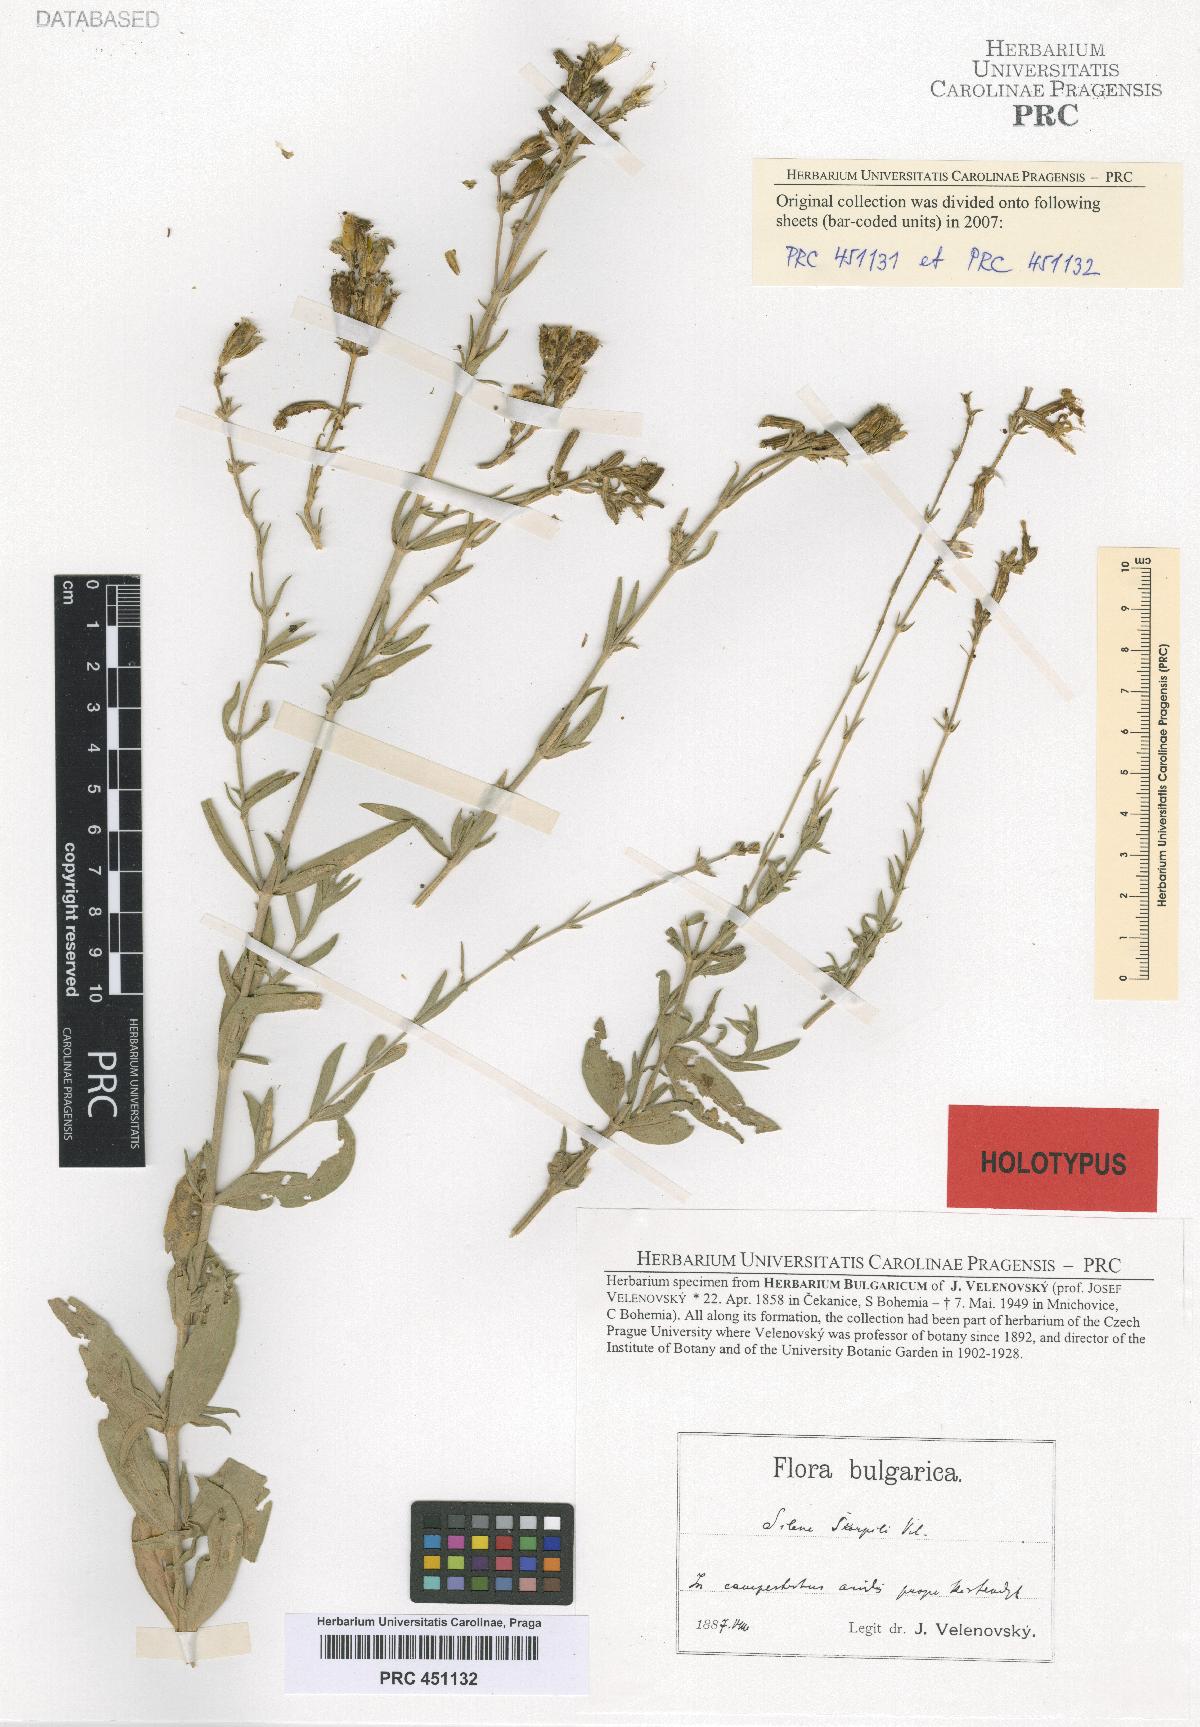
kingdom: Plantae
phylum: Tracheophyta
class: Magnoliopsida
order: Caryophyllales
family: Caryophyllaceae
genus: Silene
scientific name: Silene skorpilii
